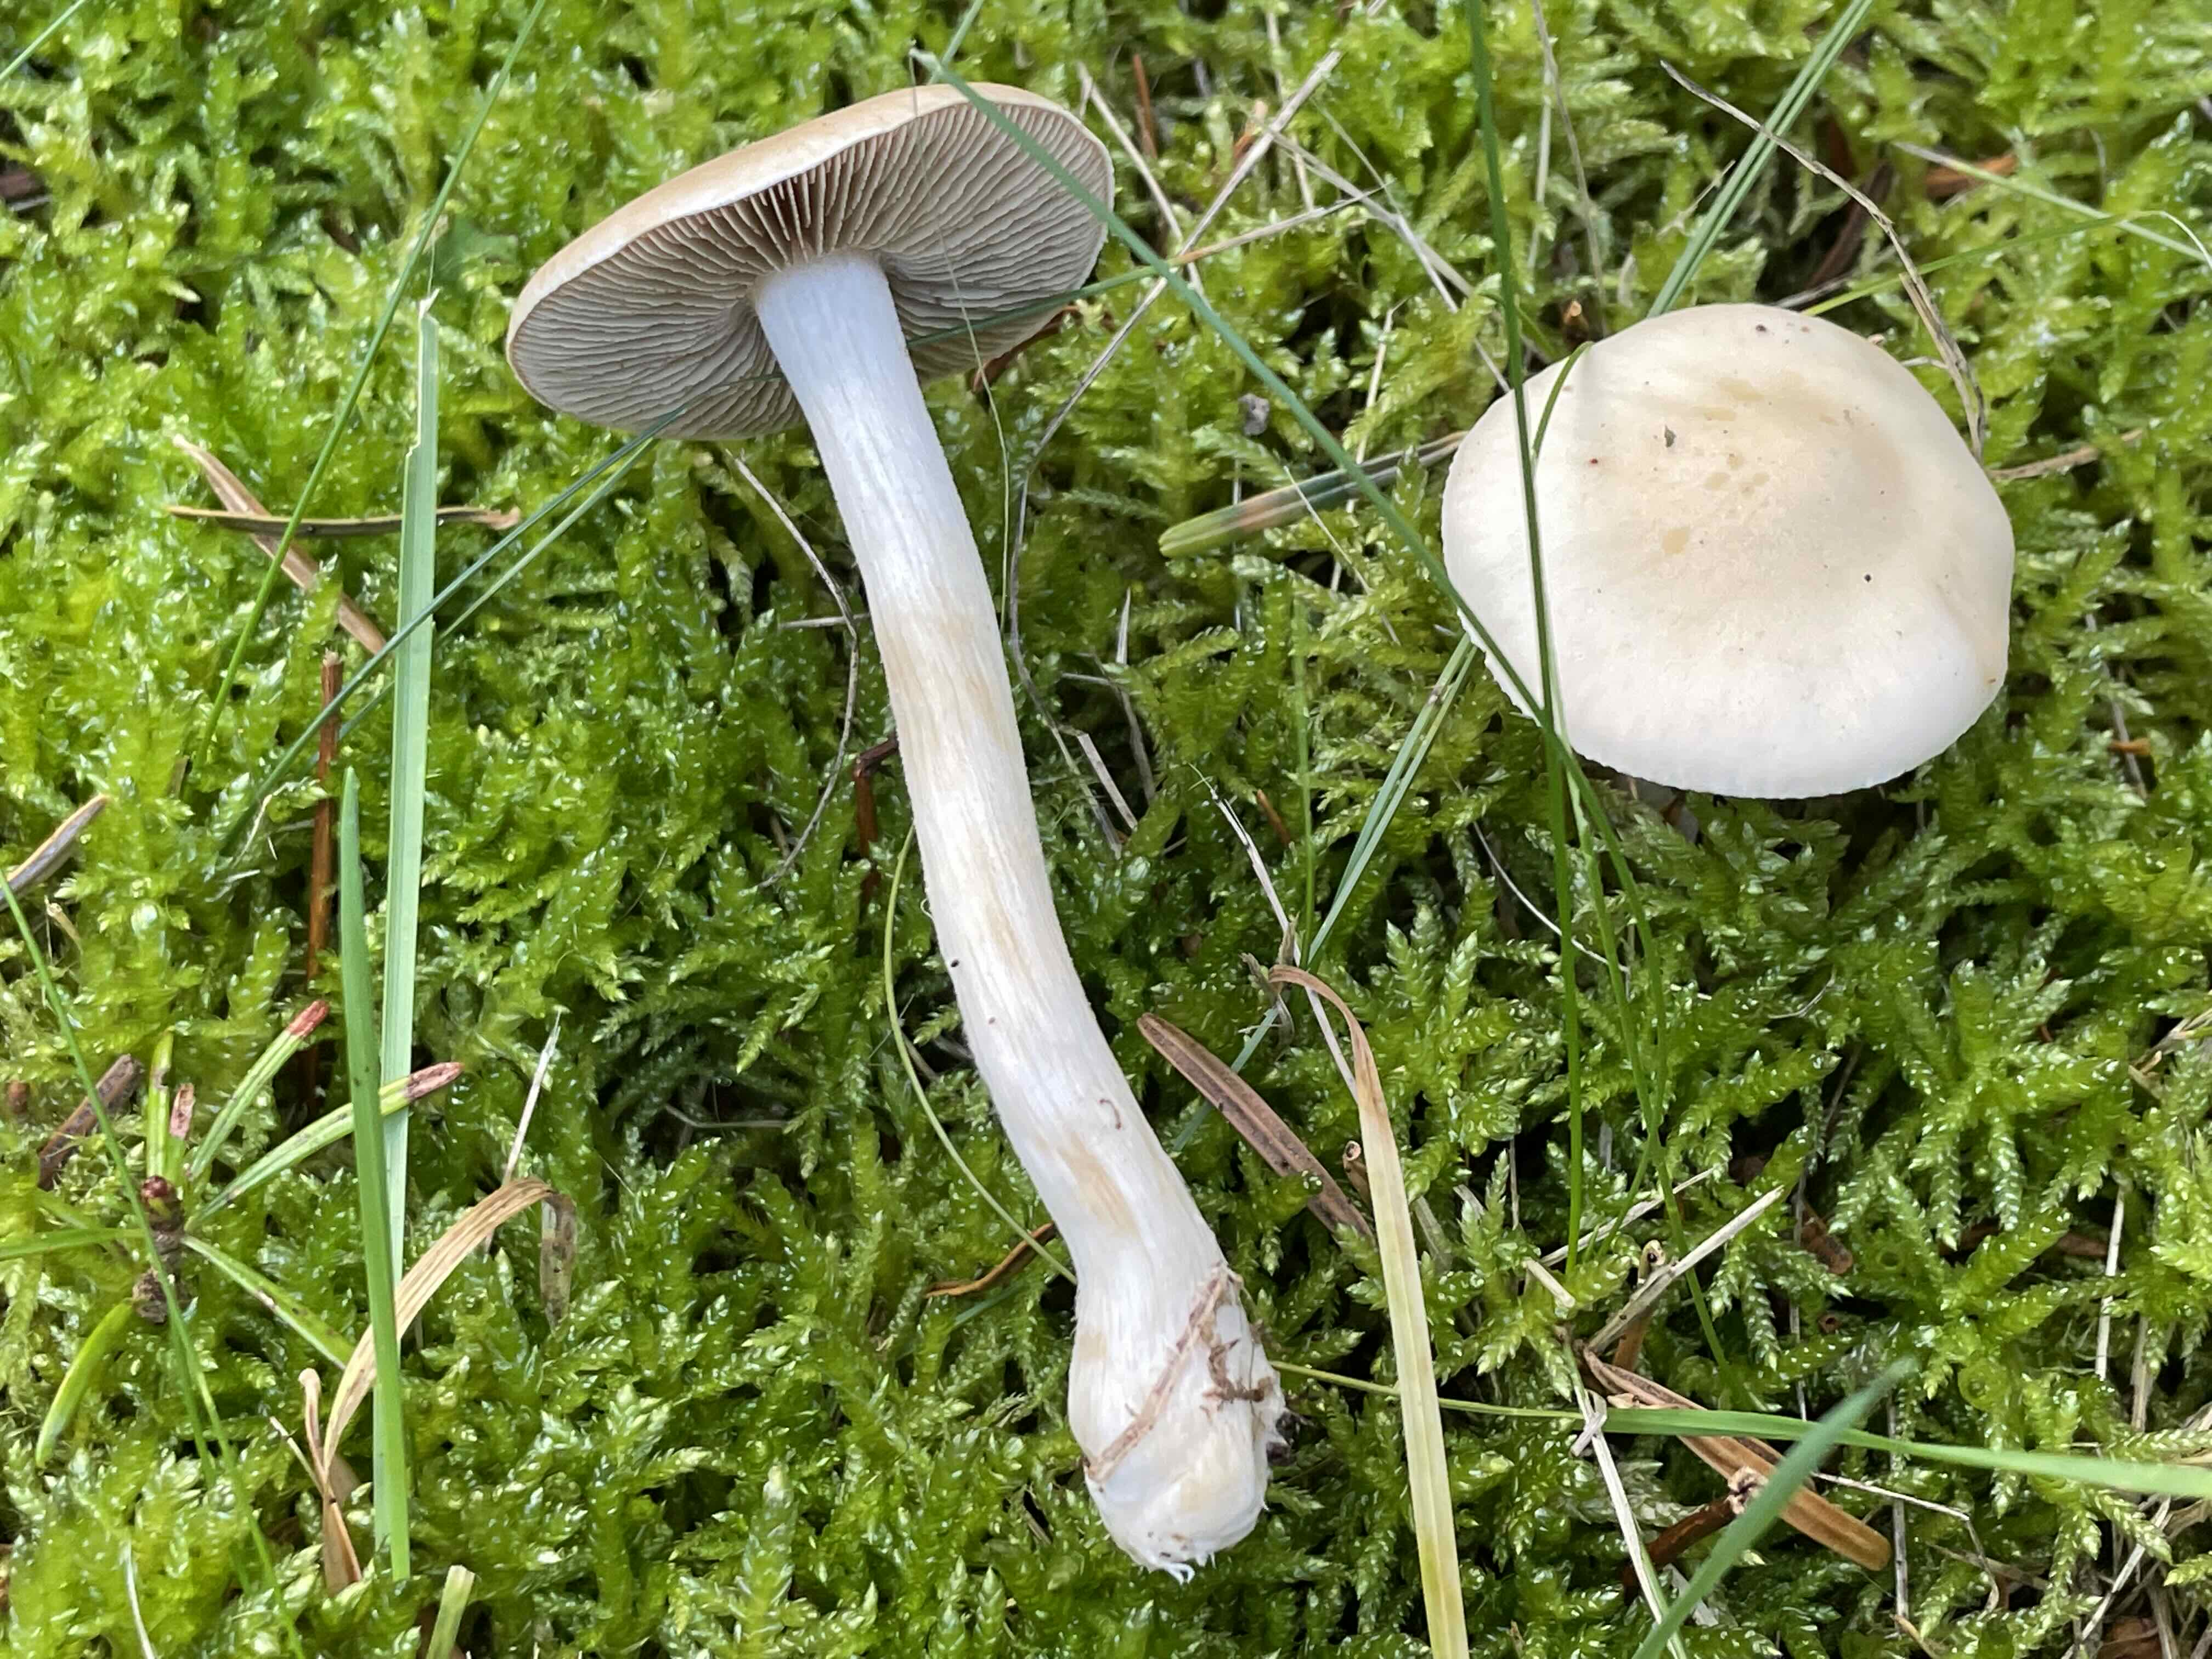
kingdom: Fungi
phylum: Basidiomycota
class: Agaricomycetes
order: Agaricales
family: Hymenogastraceae
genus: Hebeloma
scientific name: Hebeloma
